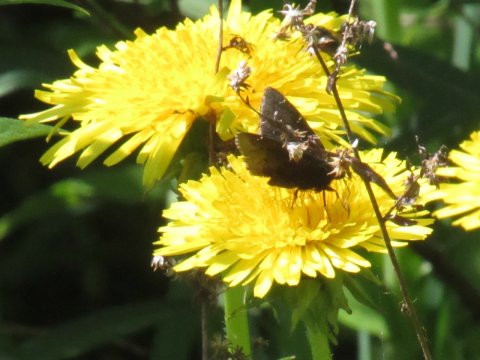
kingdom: Animalia
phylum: Arthropoda
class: Insecta
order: Lepidoptera
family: Hesperiidae
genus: Autochton
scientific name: Autochton
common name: Northern Cloudywing
